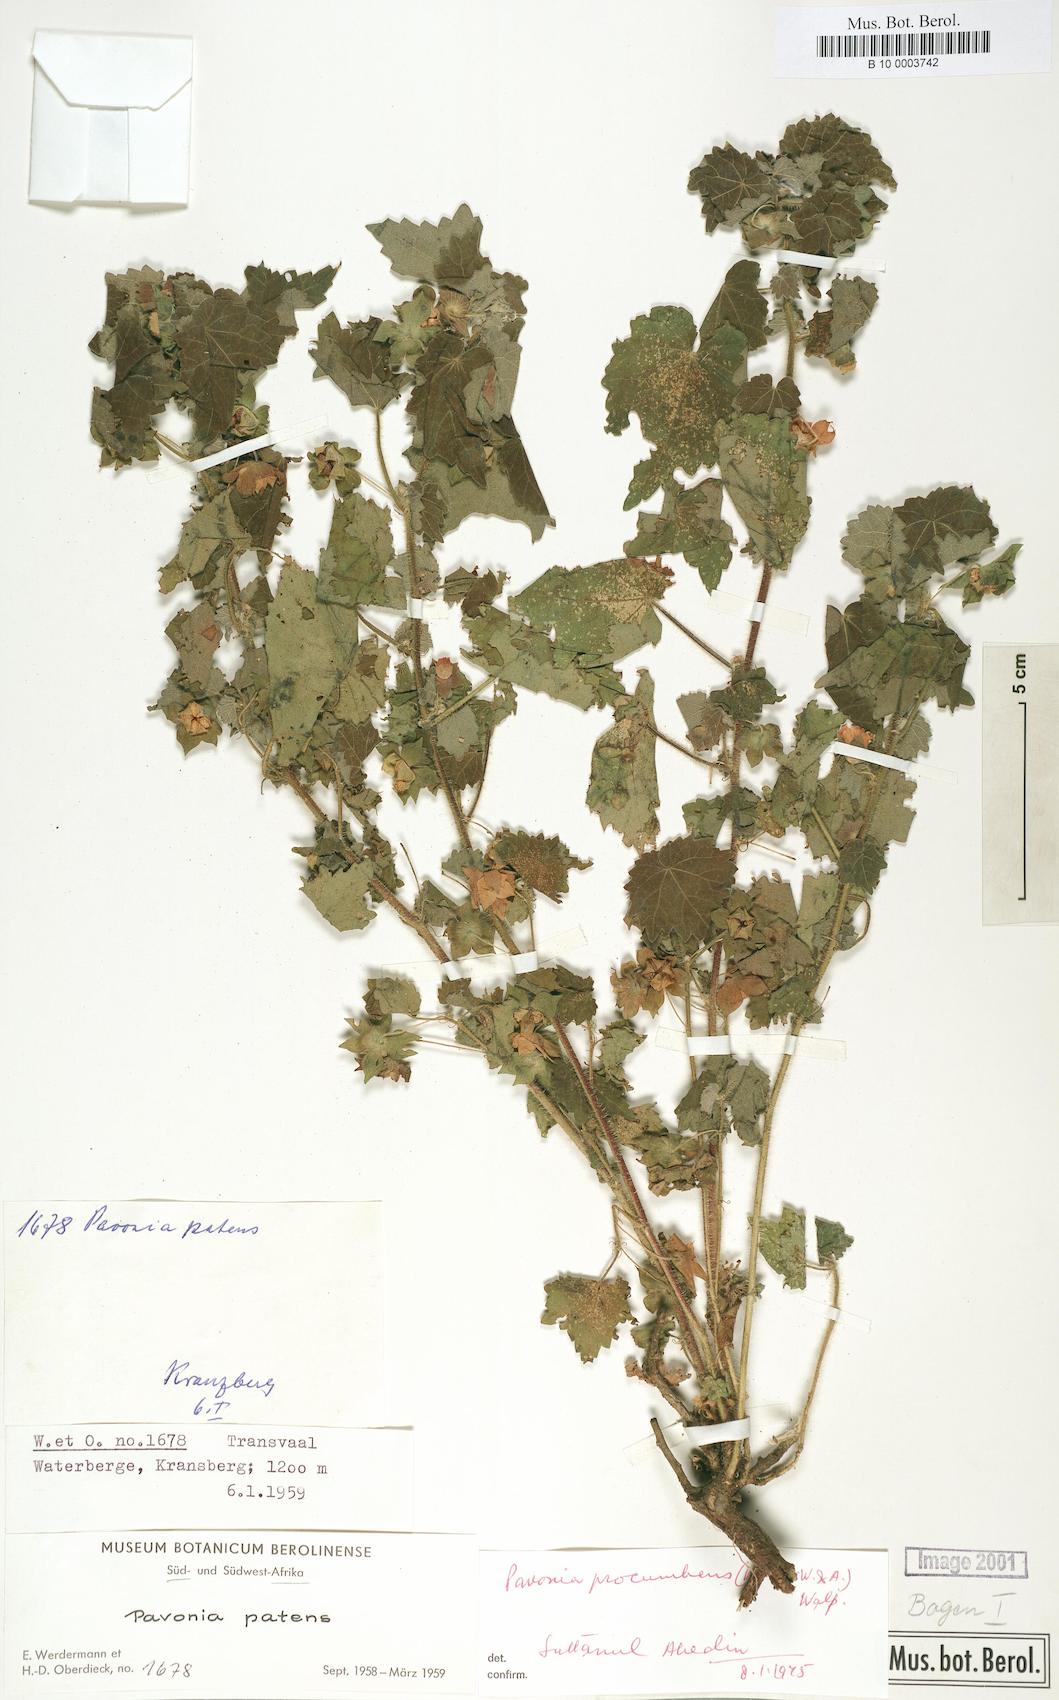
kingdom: Plantae
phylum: Tracheophyta
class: Magnoliopsida
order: Malvales
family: Malvaceae
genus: Pavonia
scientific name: Pavonia procumbens
